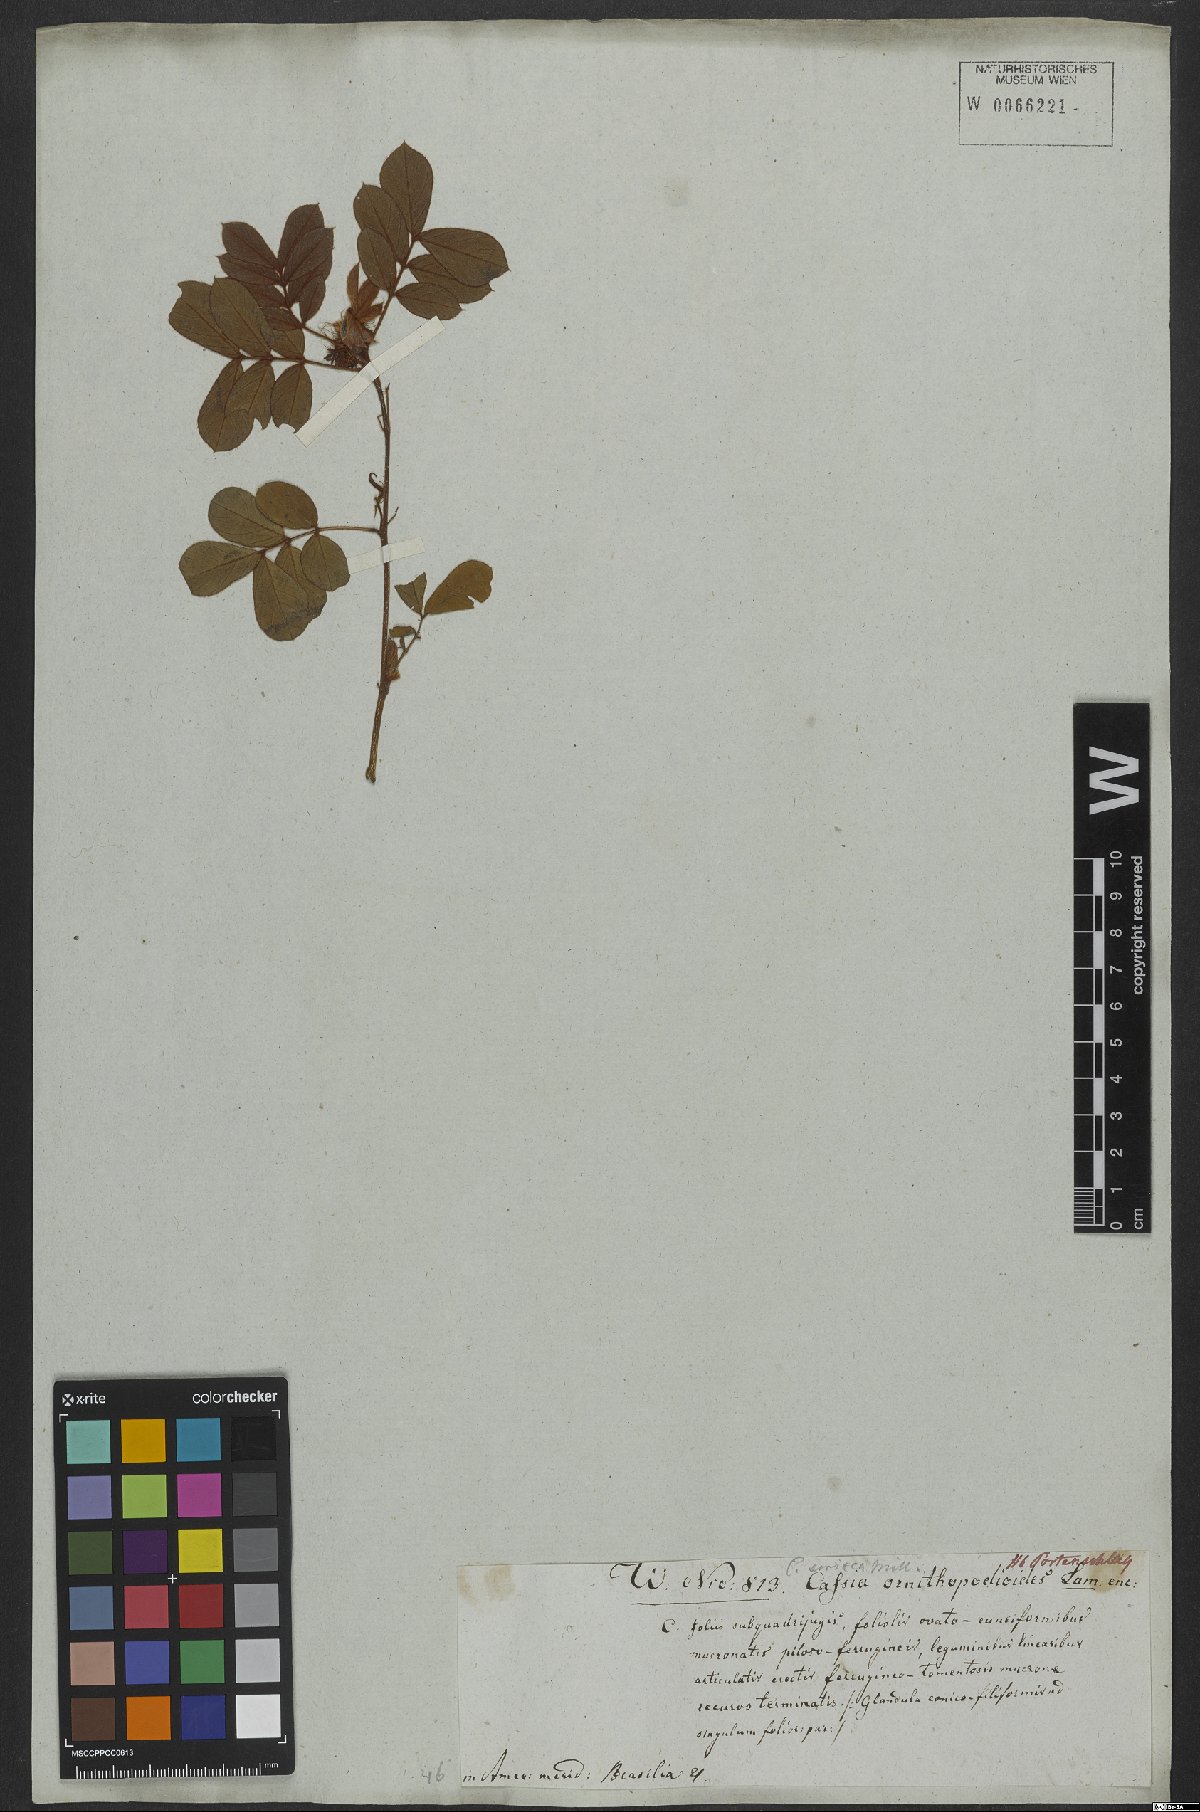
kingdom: Plantae
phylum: Tracheophyta
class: Magnoliopsida
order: Fabales
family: Fabaceae
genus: Senna
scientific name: Senna uniflora
